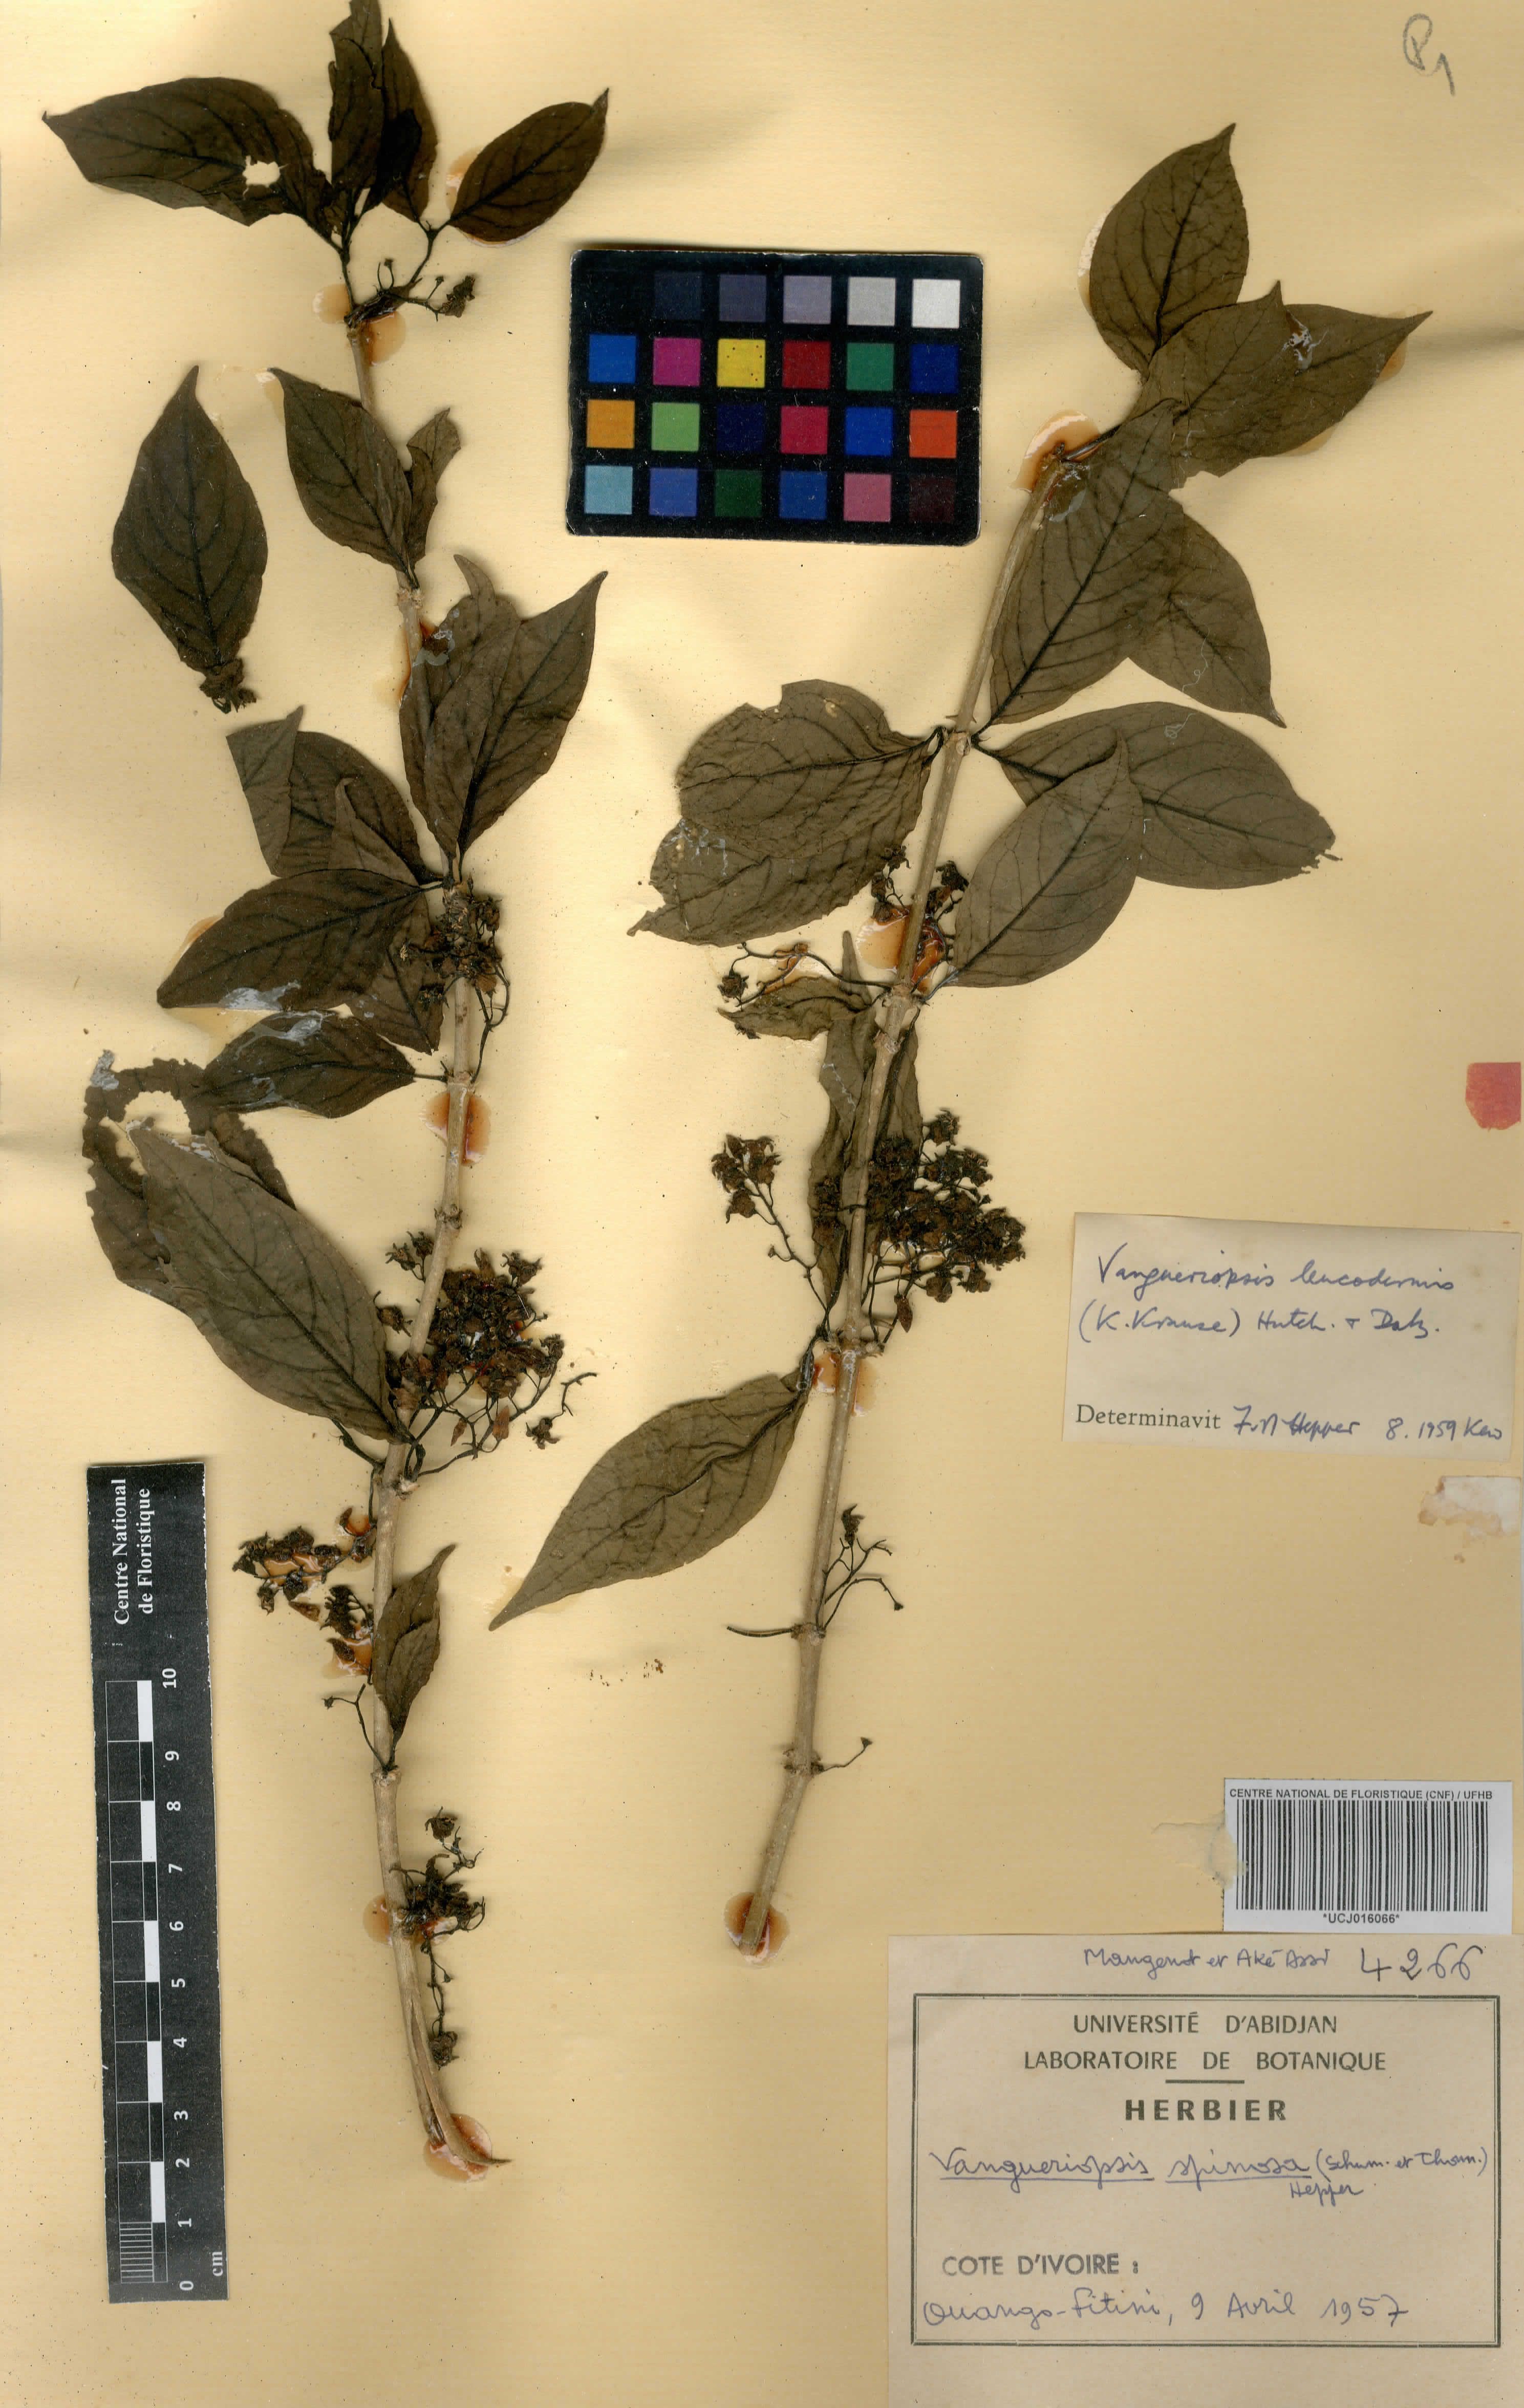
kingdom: Plantae
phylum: Tracheophyta
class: Magnoliopsida
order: Gentianales
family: Rubiaceae
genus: Vangueriella
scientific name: Vangueriella spinosa
